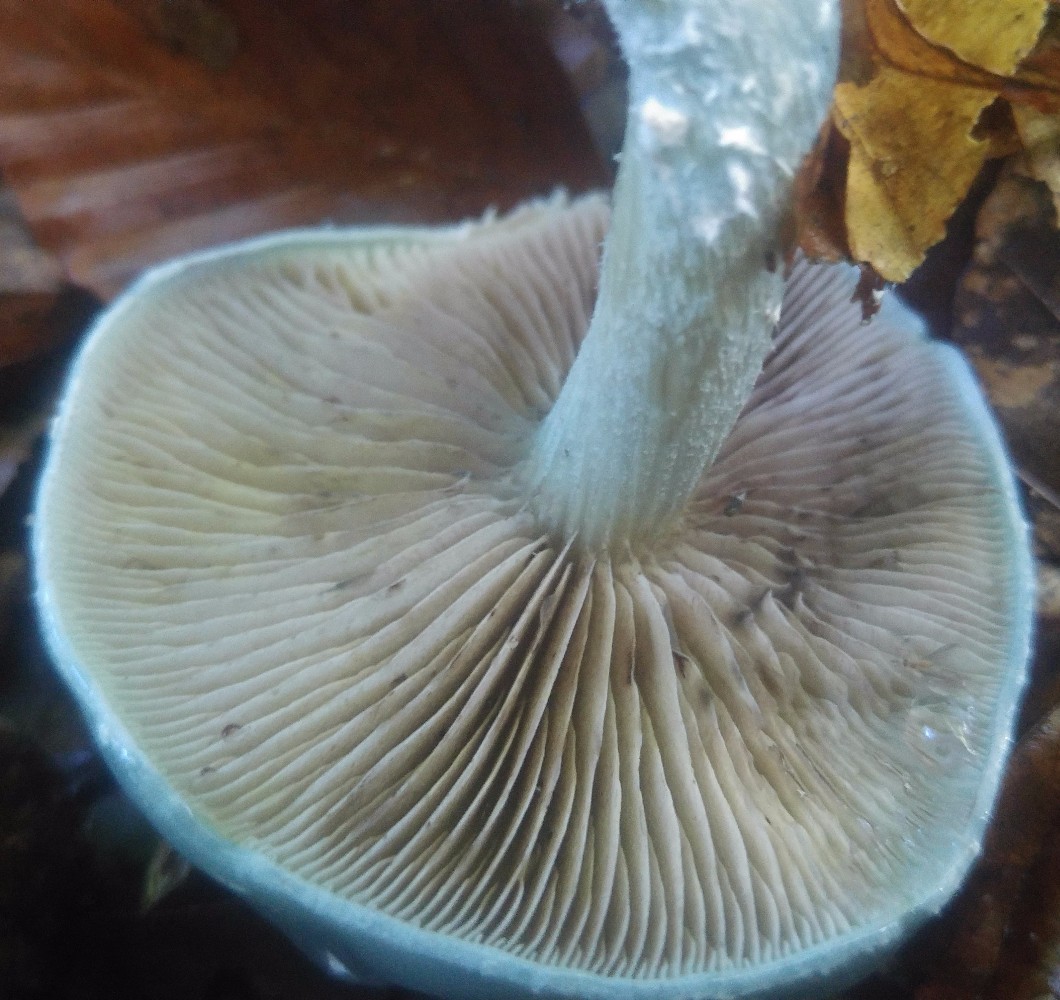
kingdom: Fungi
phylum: Basidiomycota
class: Agaricomycetes
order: Agaricales
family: Strophariaceae
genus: Stropharia
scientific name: Stropharia cyanea
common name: blågrøn bredblad
